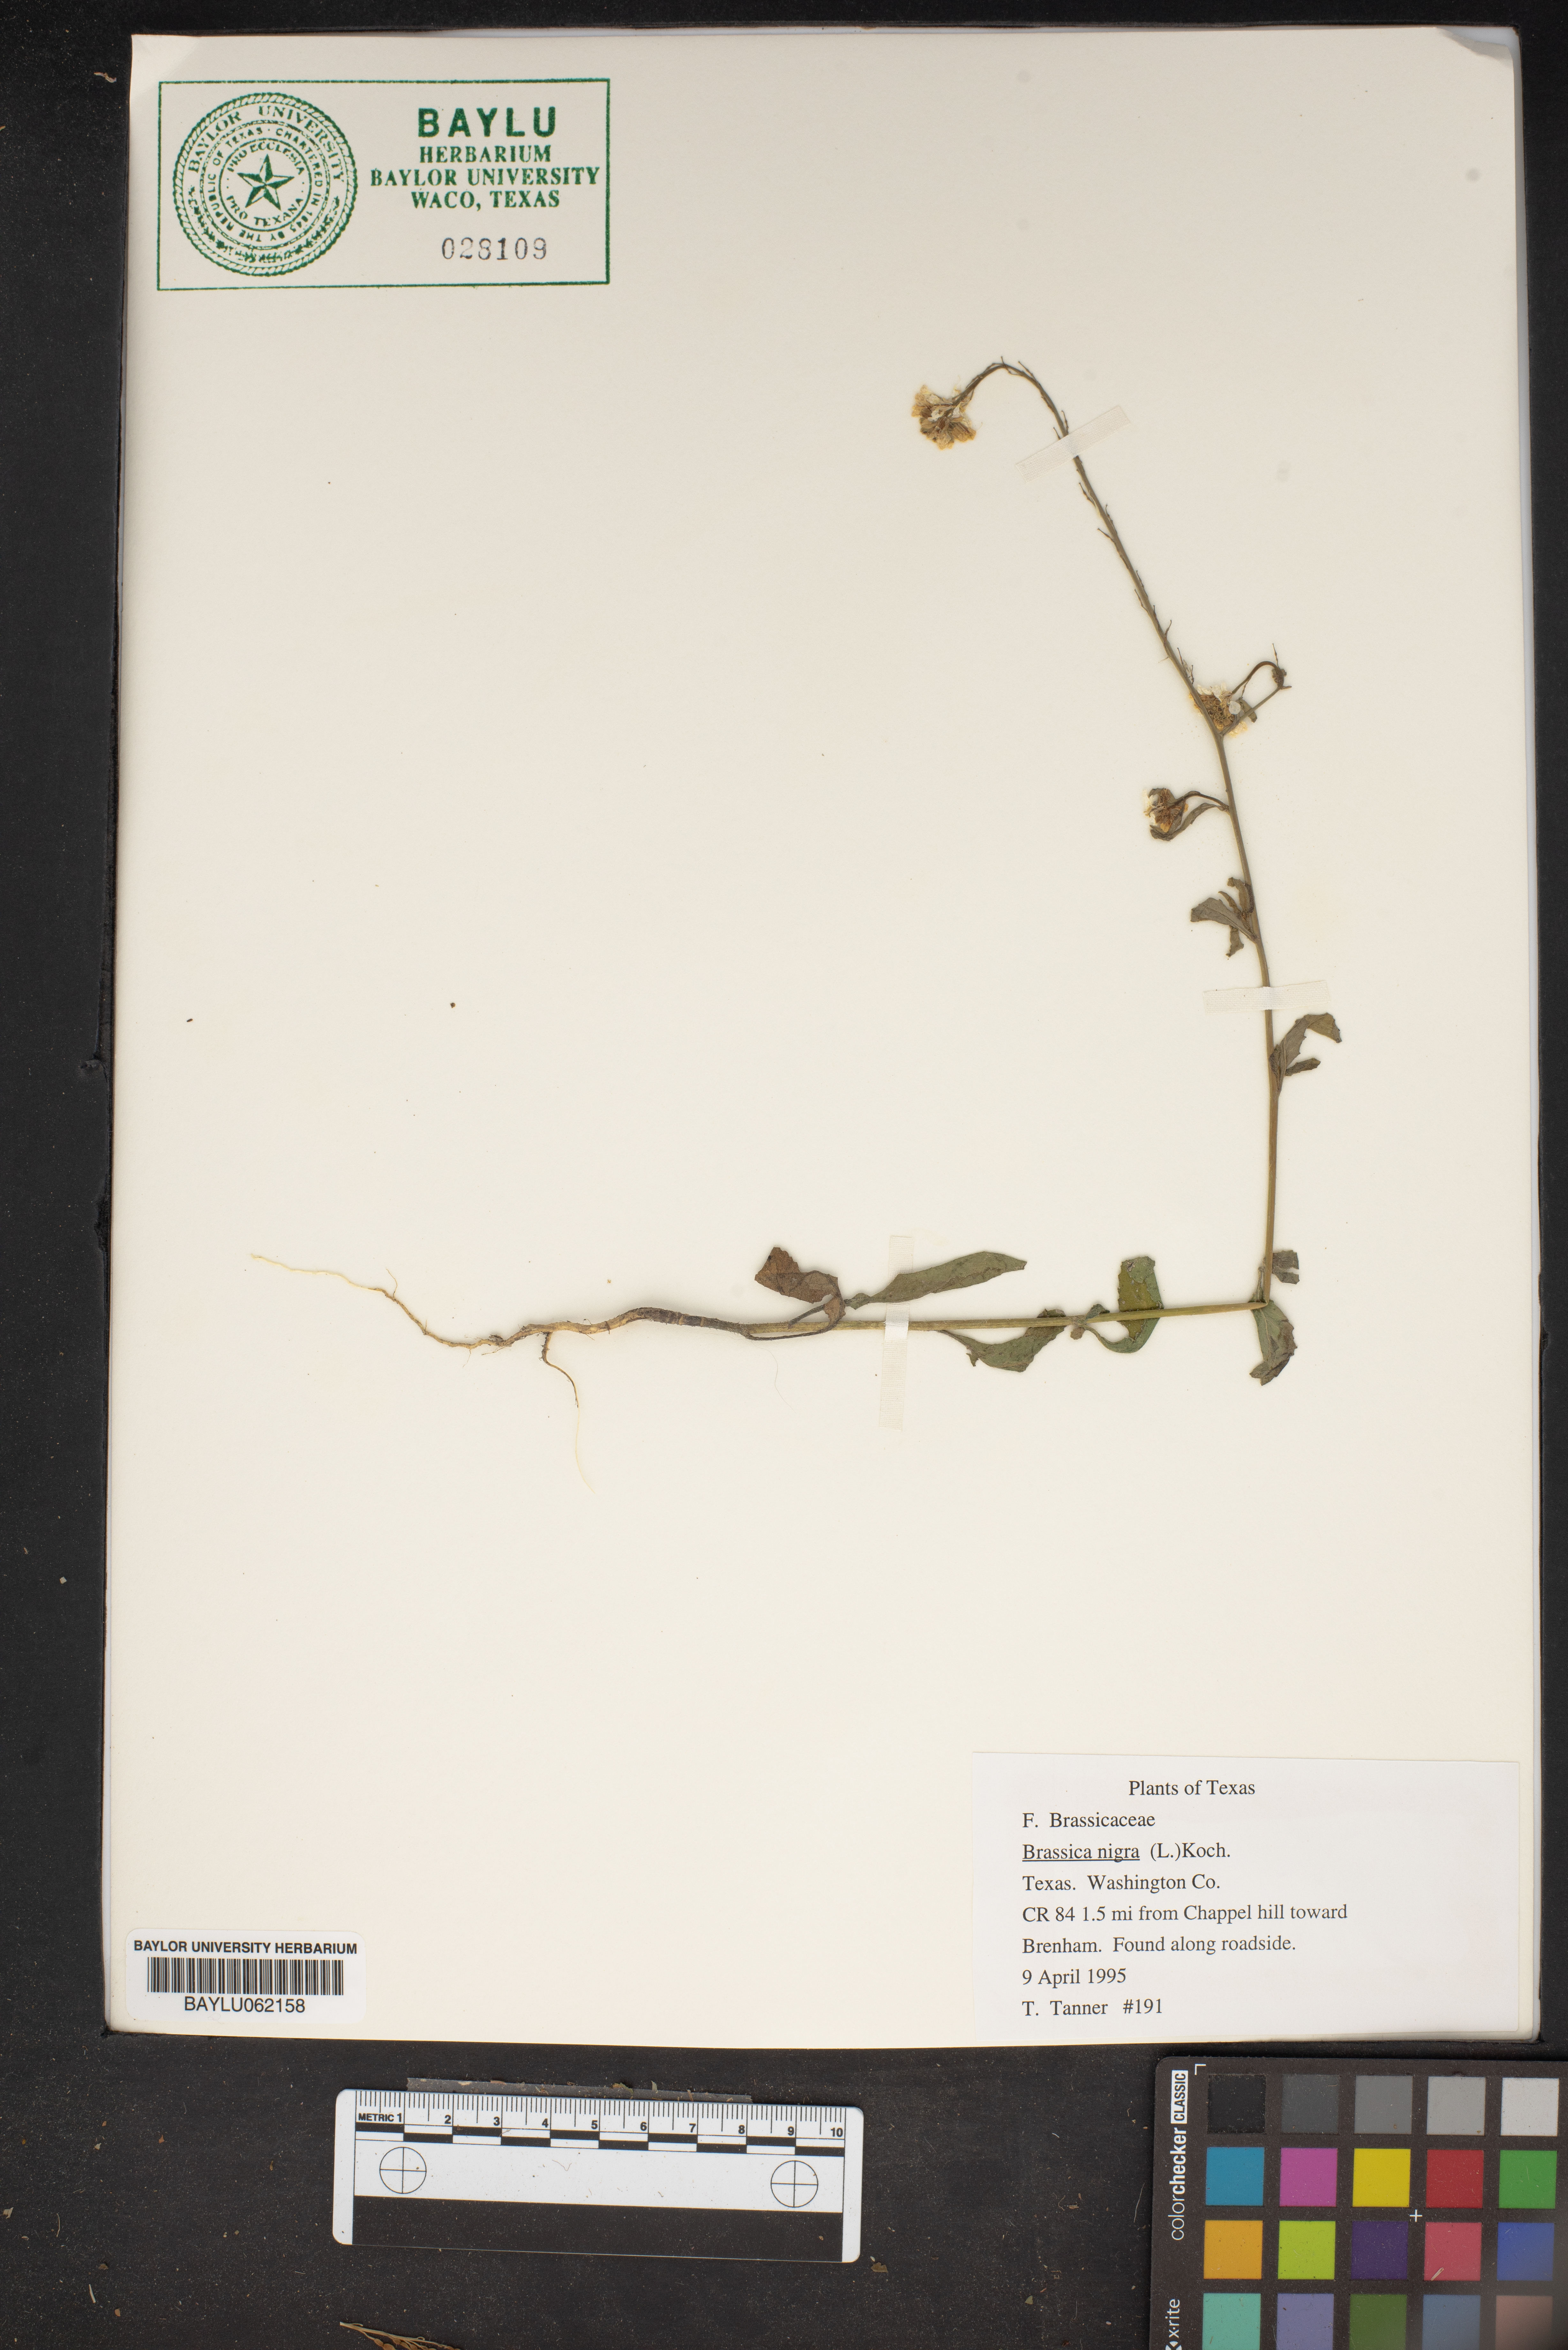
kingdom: Plantae
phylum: Tracheophyta
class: Magnoliopsida
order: Brassicales
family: Brassicaceae
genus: Brassica
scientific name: Brassica nigra
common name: Black mustard
